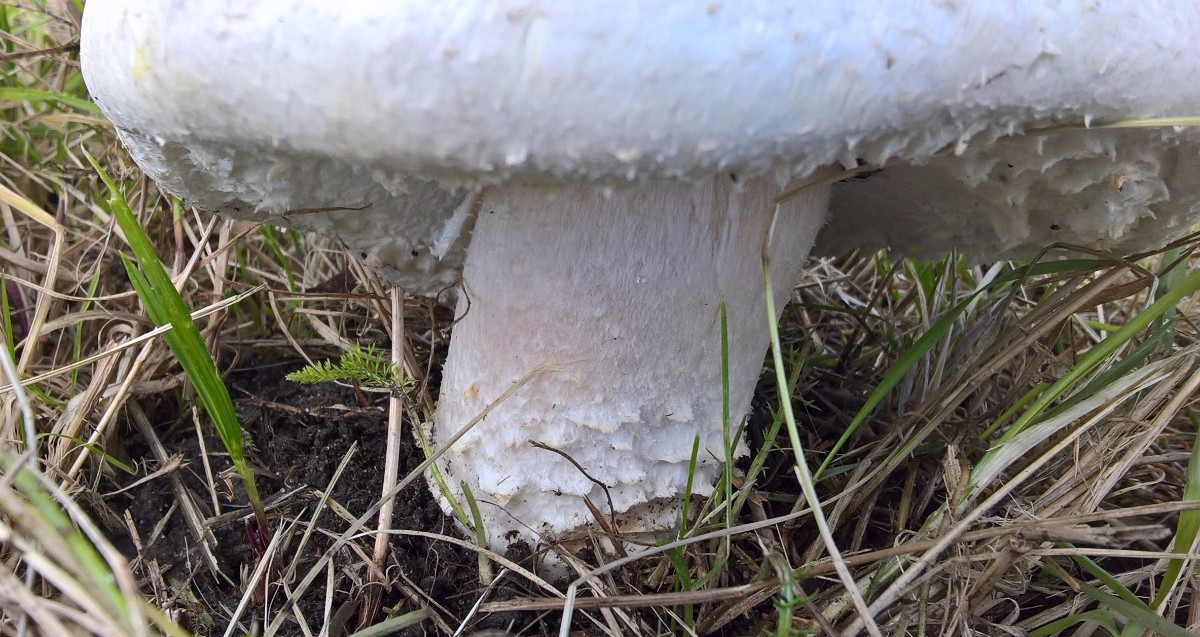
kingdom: Fungi
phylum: Basidiomycota
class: Agaricomycetes
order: Agaricales
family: Agaricaceae
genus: Agaricus
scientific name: Agaricus
